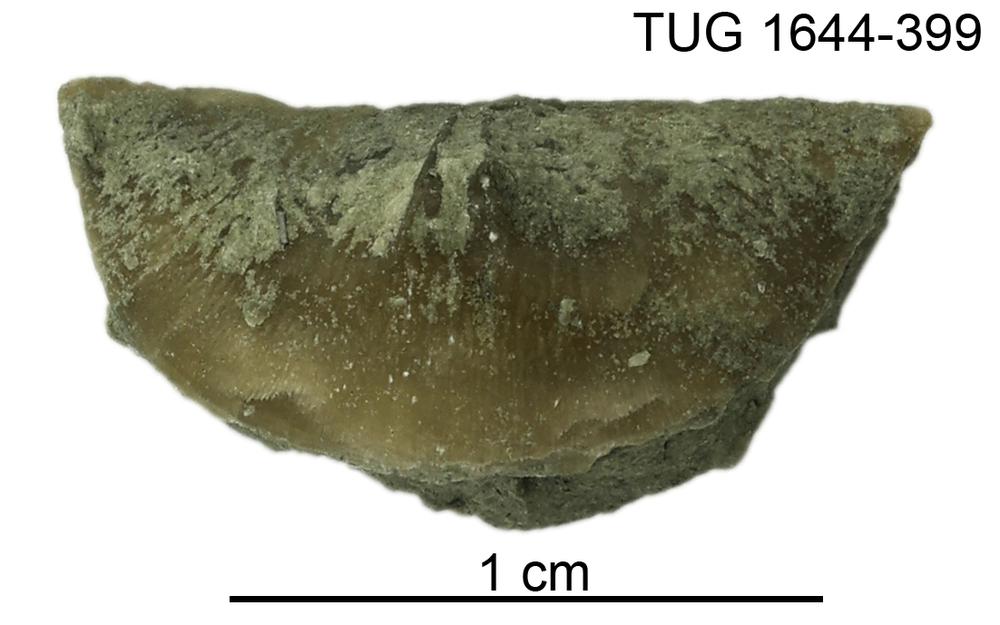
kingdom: Animalia
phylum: Brachiopoda
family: Oldhaminidae
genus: Eoplectodonta
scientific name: Eoplectodonta
